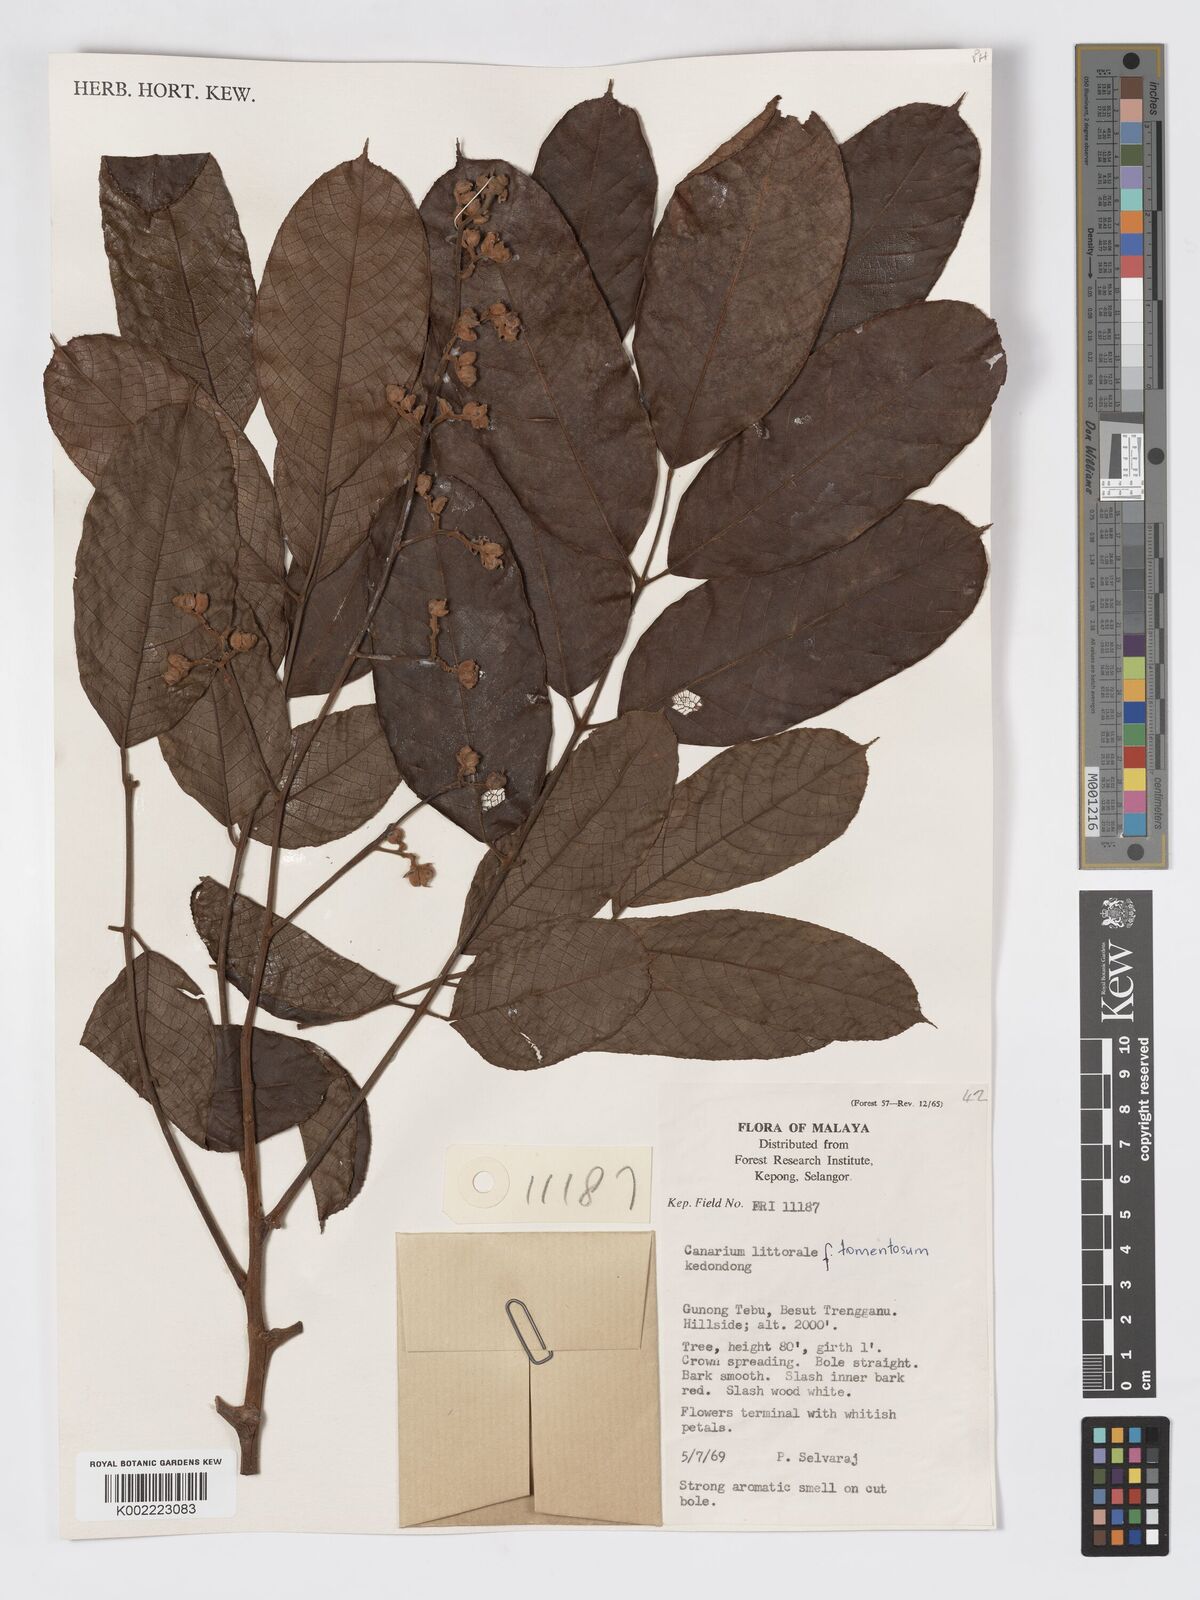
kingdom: Plantae
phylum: Tracheophyta
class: Magnoliopsida
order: Sapindales
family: Burseraceae
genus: Canarium
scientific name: Canarium littorale
